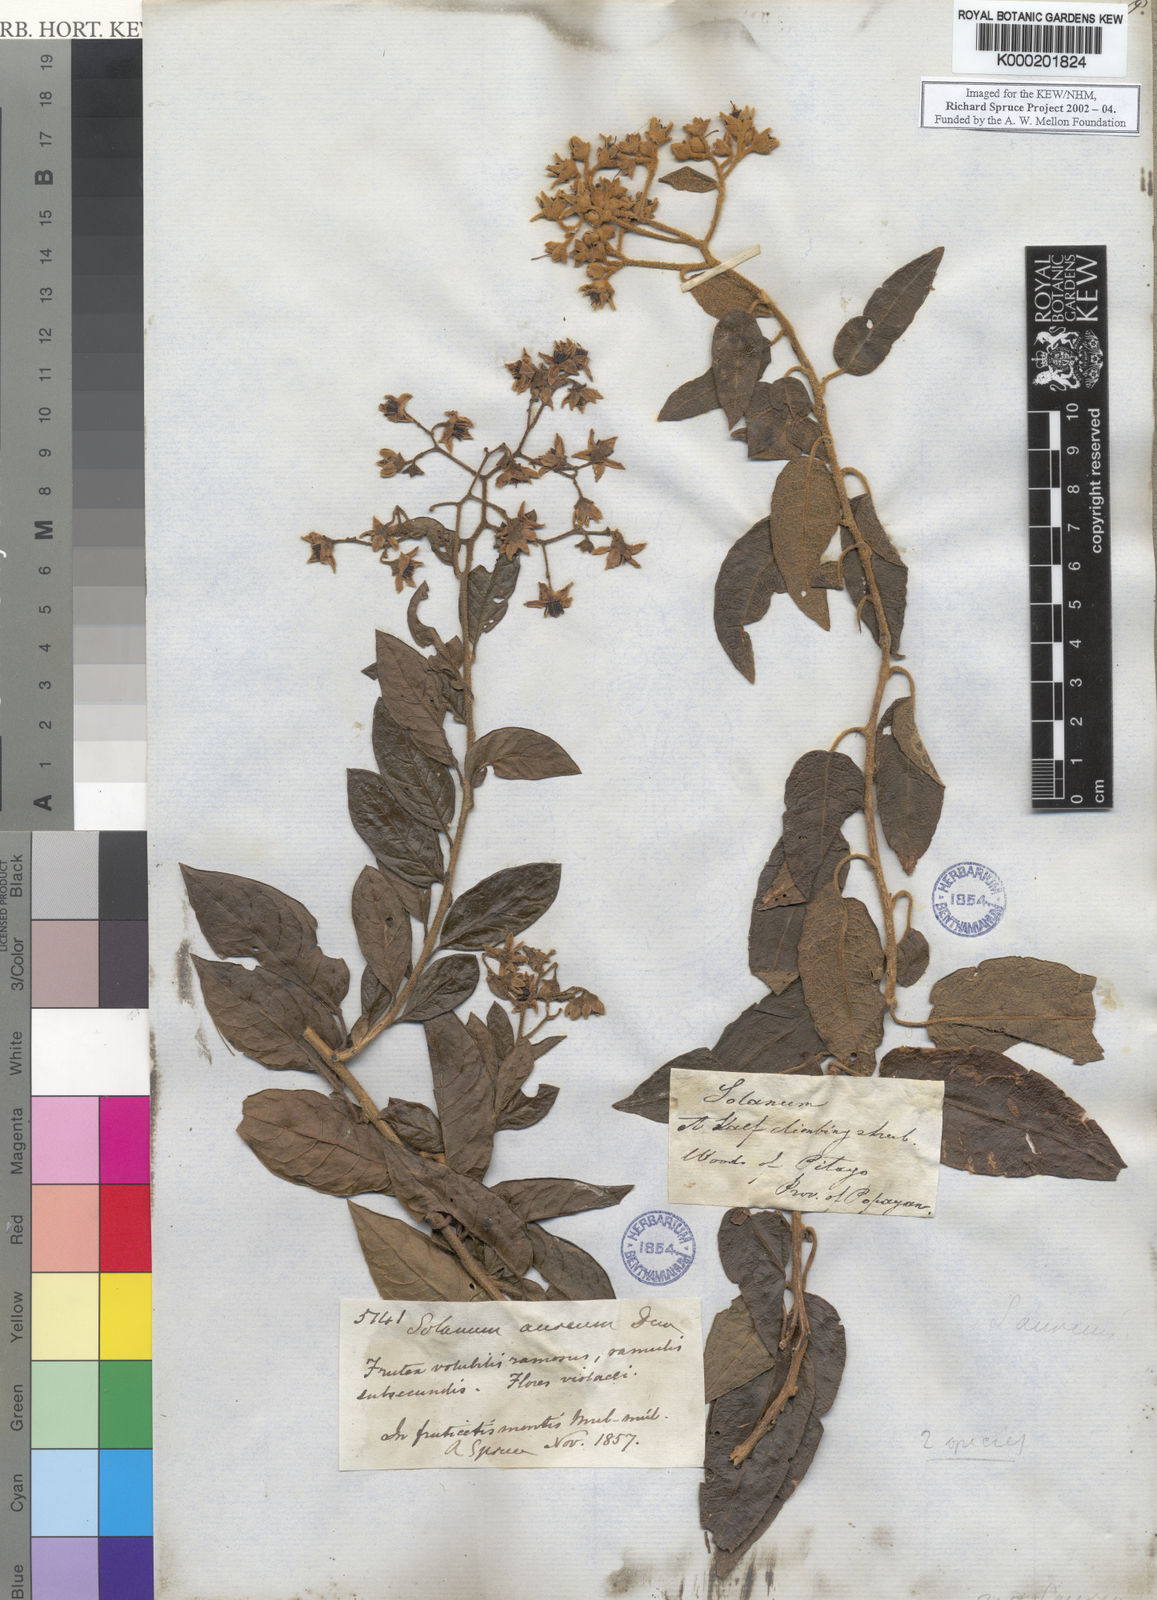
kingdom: Plantae
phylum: Tracheophyta
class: Magnoliopsida
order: Solanales
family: Solanaceae
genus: Solanum
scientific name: Solanum aureum
